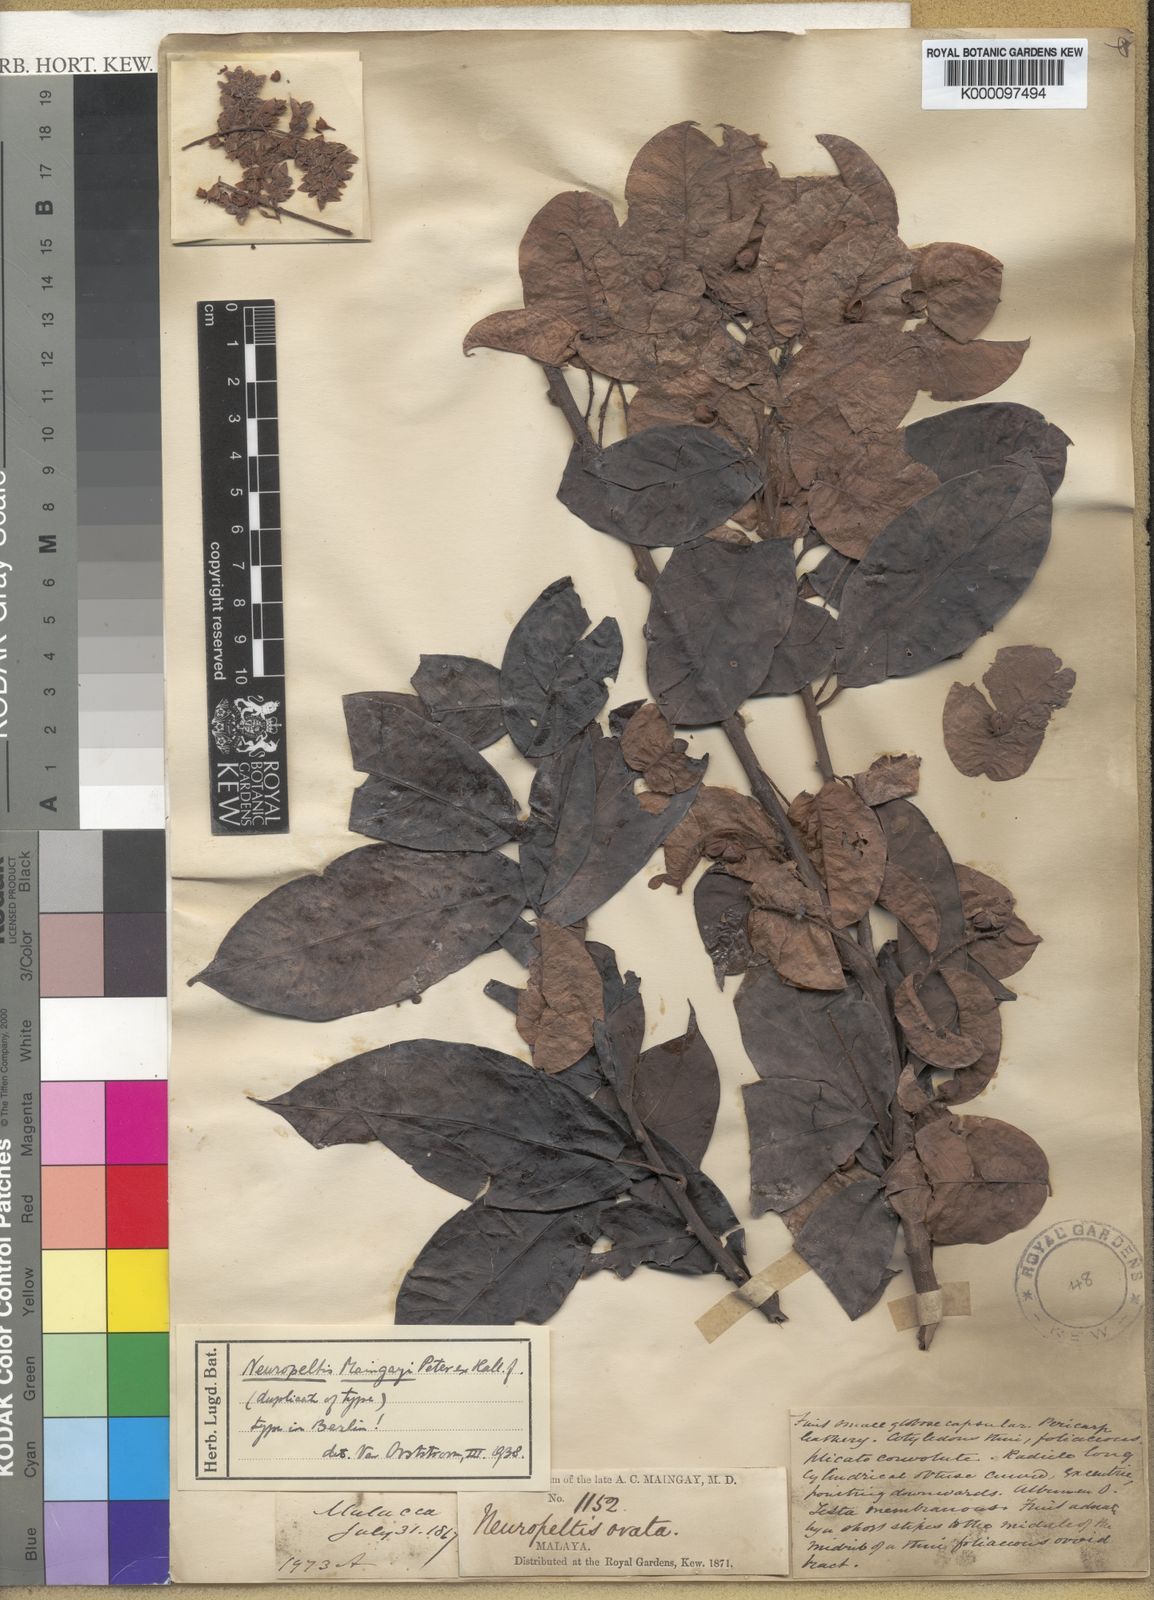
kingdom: Plantae
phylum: Tracheophyta
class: Magnoliopsida
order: Solanales
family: Convolvulaceae
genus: Neuropeltis
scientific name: Neuropeltis maingayi
